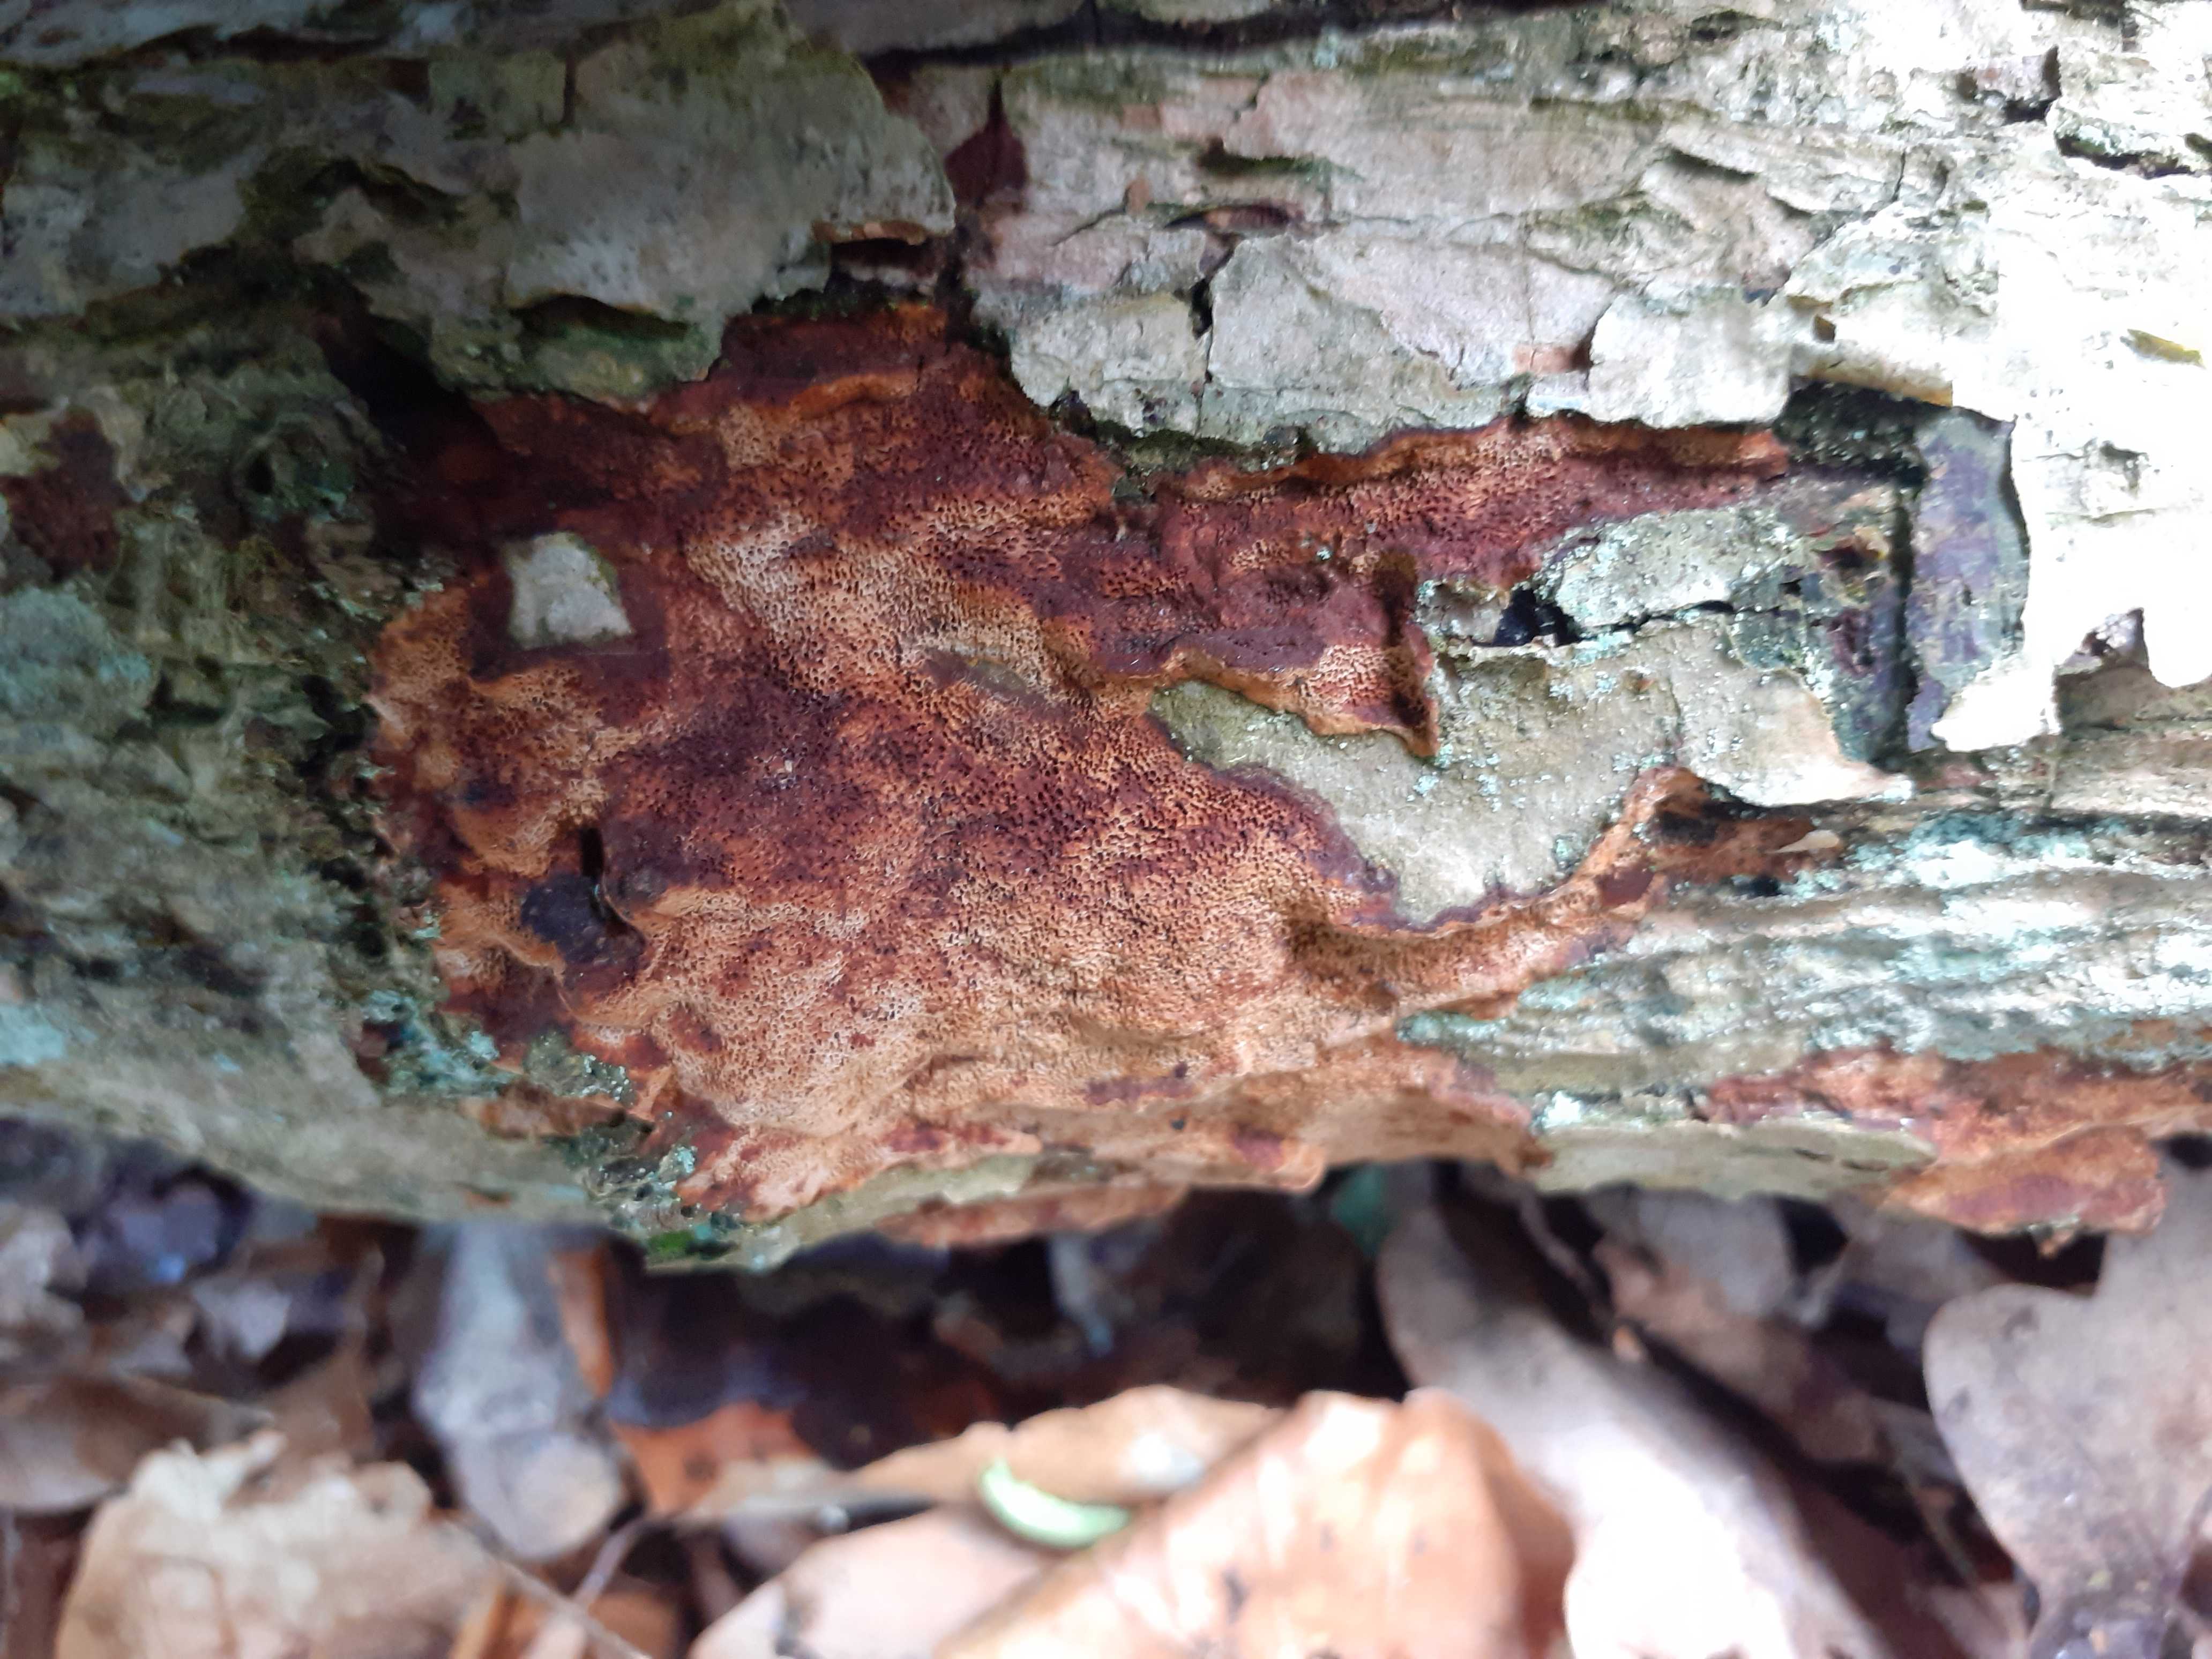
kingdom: Fungi
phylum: Basidiomycota
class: Agaricomycetes
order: Hymenochaetales
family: Hymenochaetaceae
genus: Fuscoporia
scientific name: Fuscoporia ferrea
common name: skorpe-ildporesvamp
